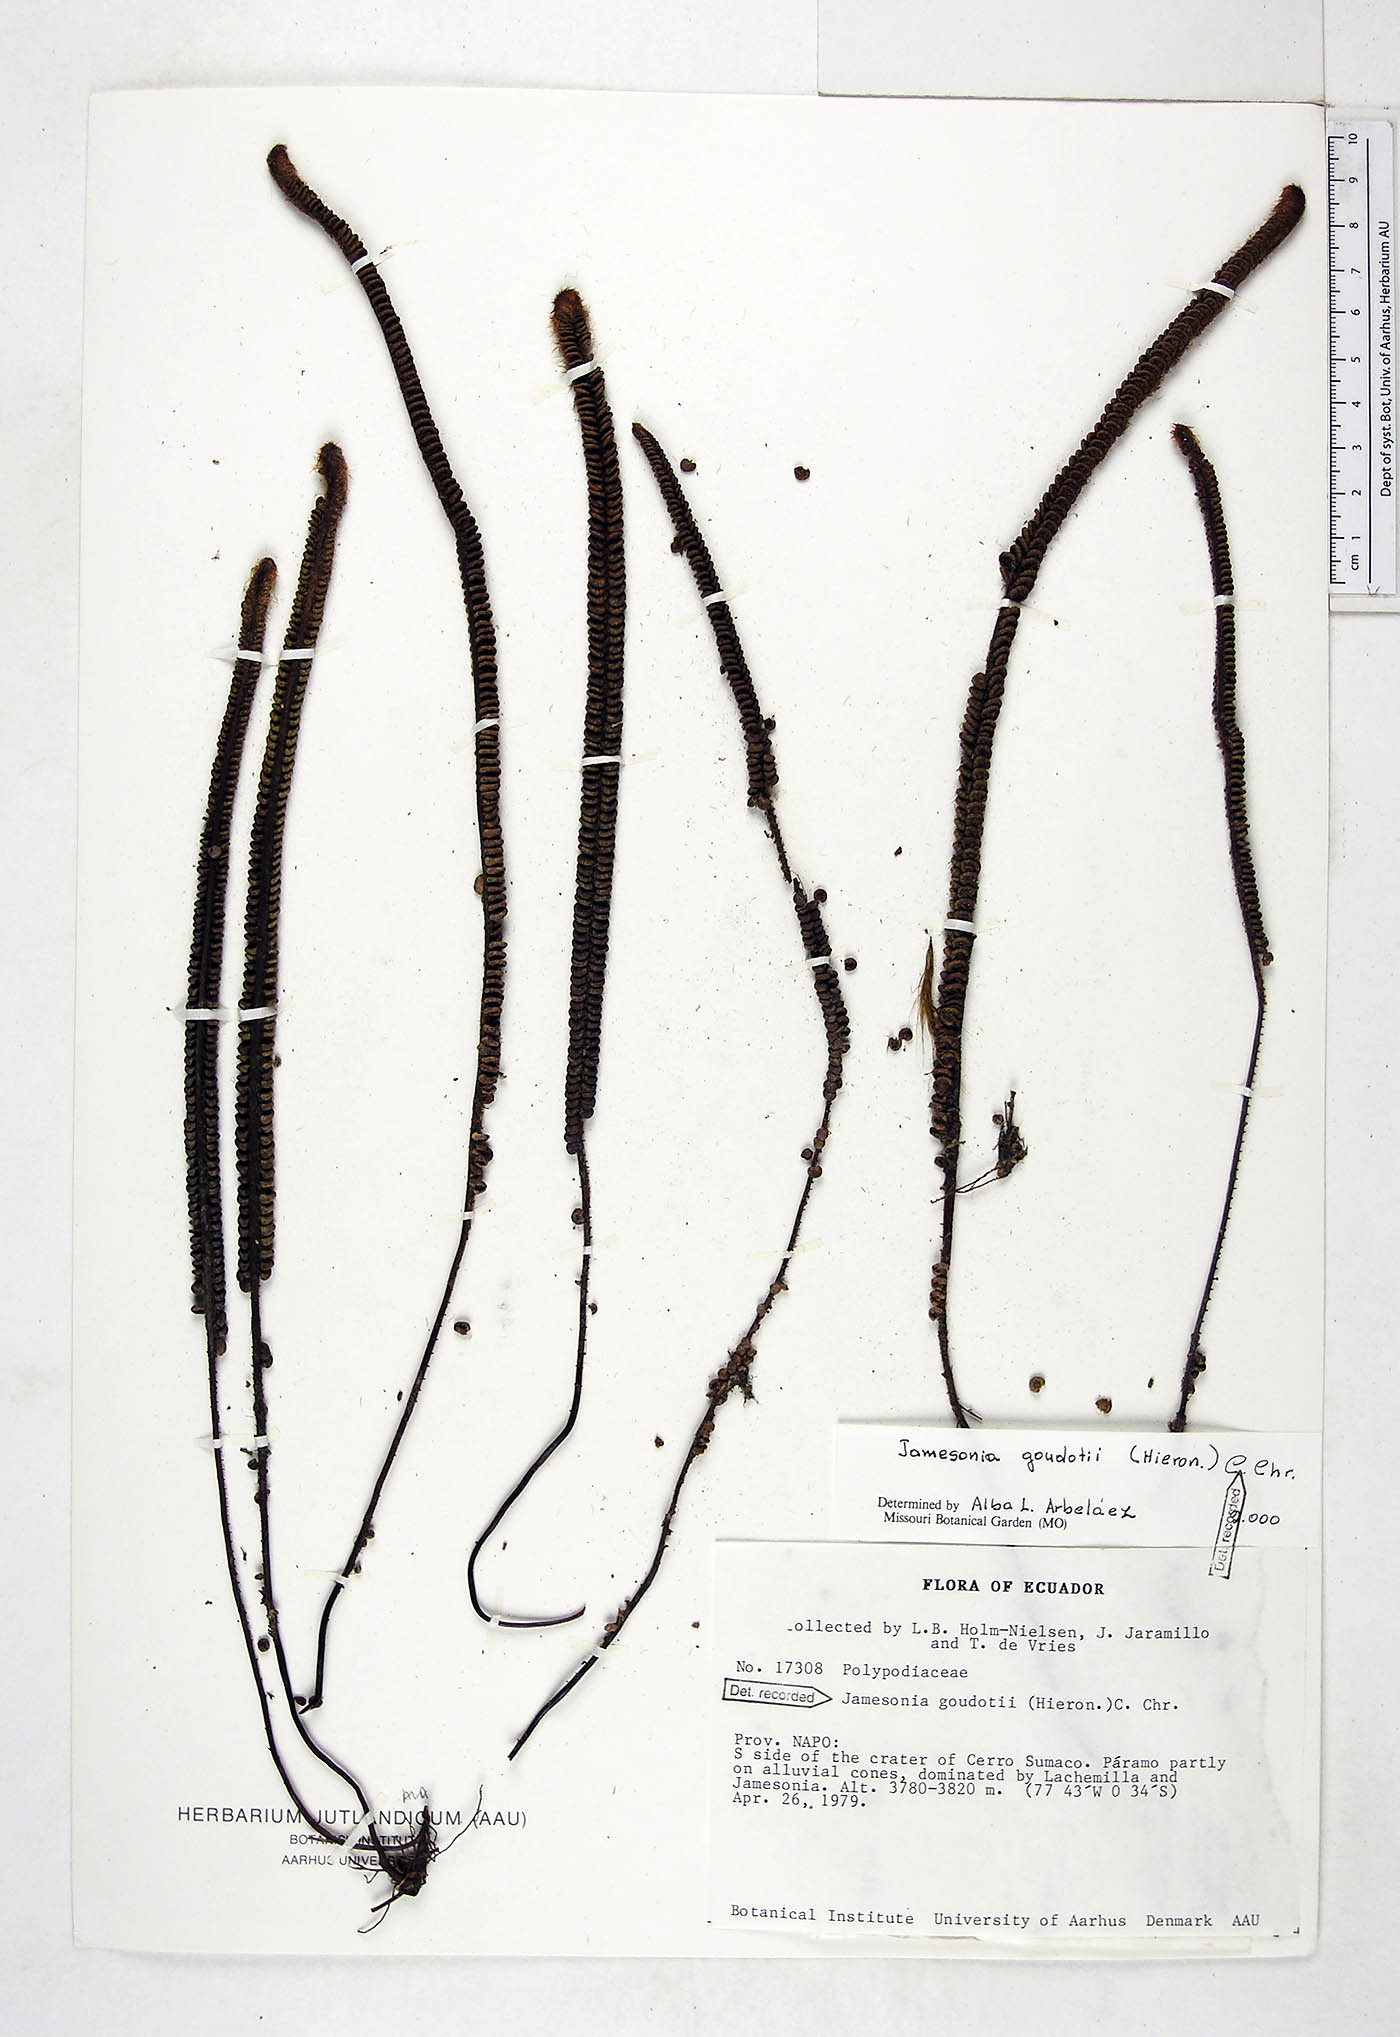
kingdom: Plantae
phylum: Tracheophyta
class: Polypodiopsida
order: Polypodiales
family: Pteridaceae
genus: Jamesonia
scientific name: Jamesonia goudotii
